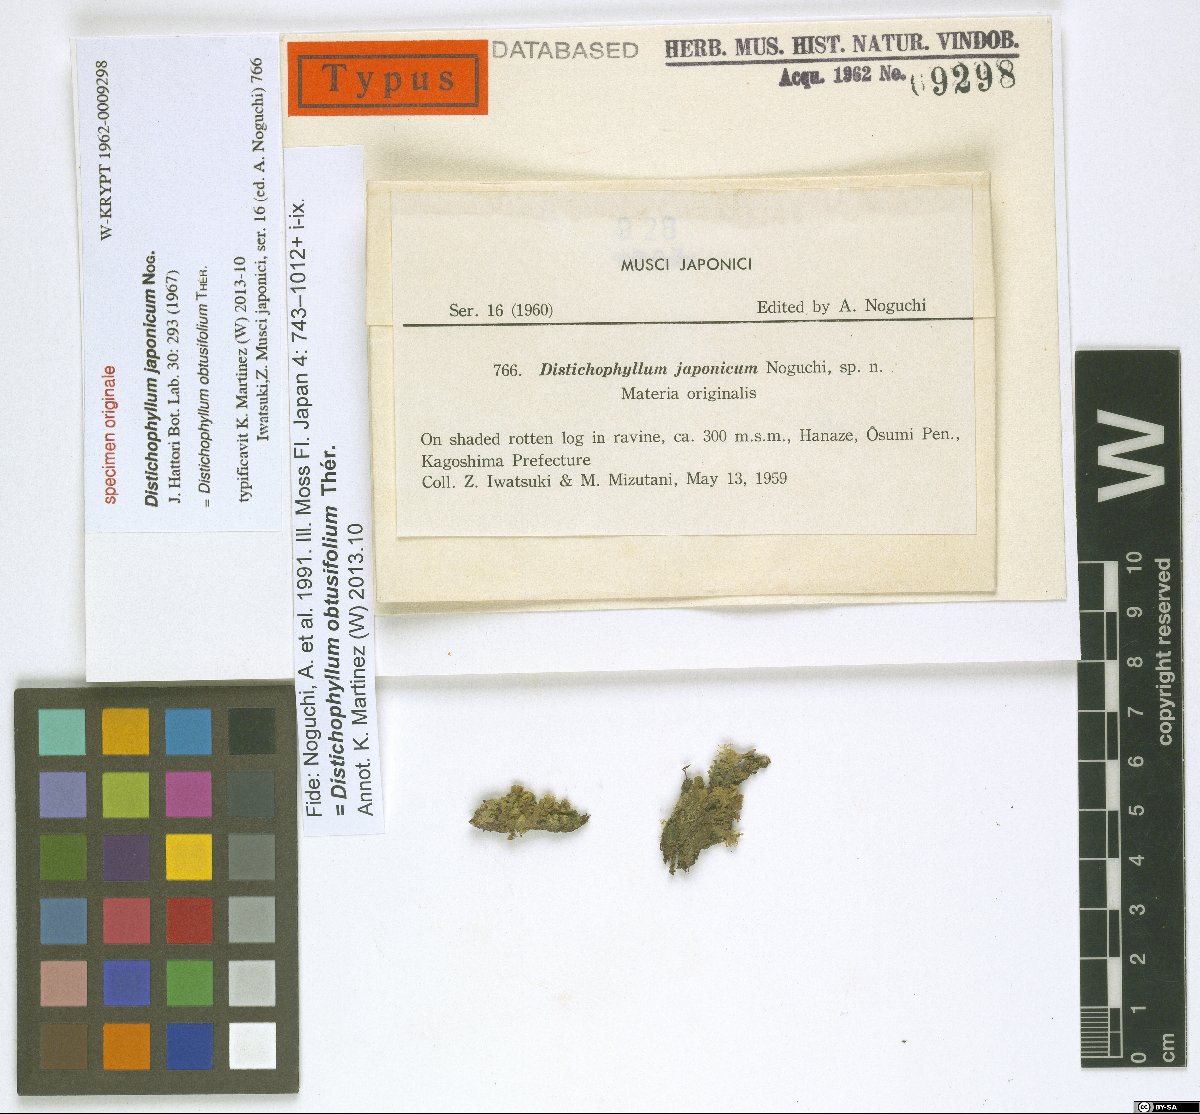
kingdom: Plantae
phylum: Bryophyta
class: Bryopsida
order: Hookeriales
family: Daltoniaceae
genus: Distichophyllum
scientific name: Distichophyllum obtusifolium
